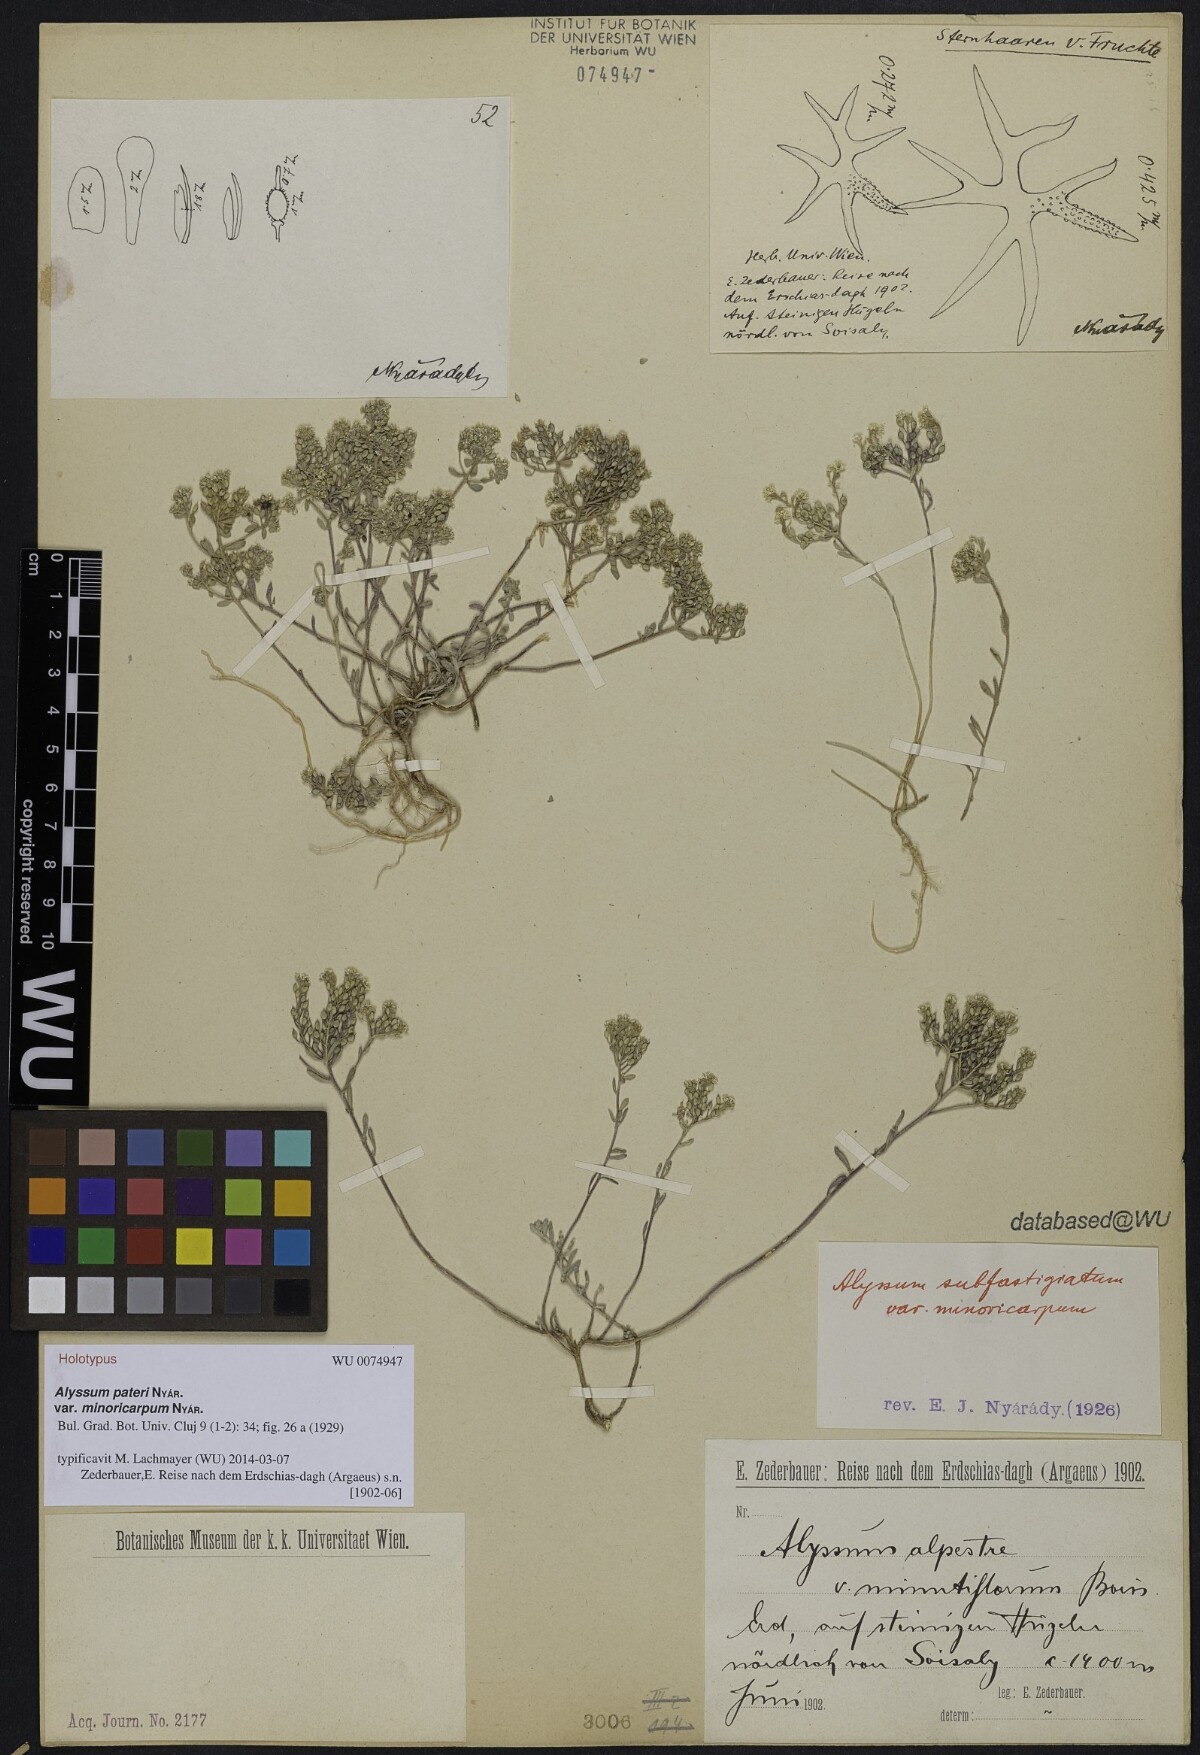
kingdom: Plantae
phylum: Tracheophyta
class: Magnoliopsida
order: Brassicales
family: Brassicaceae
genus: Odontarrhena
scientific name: Odontarrhena pateri
